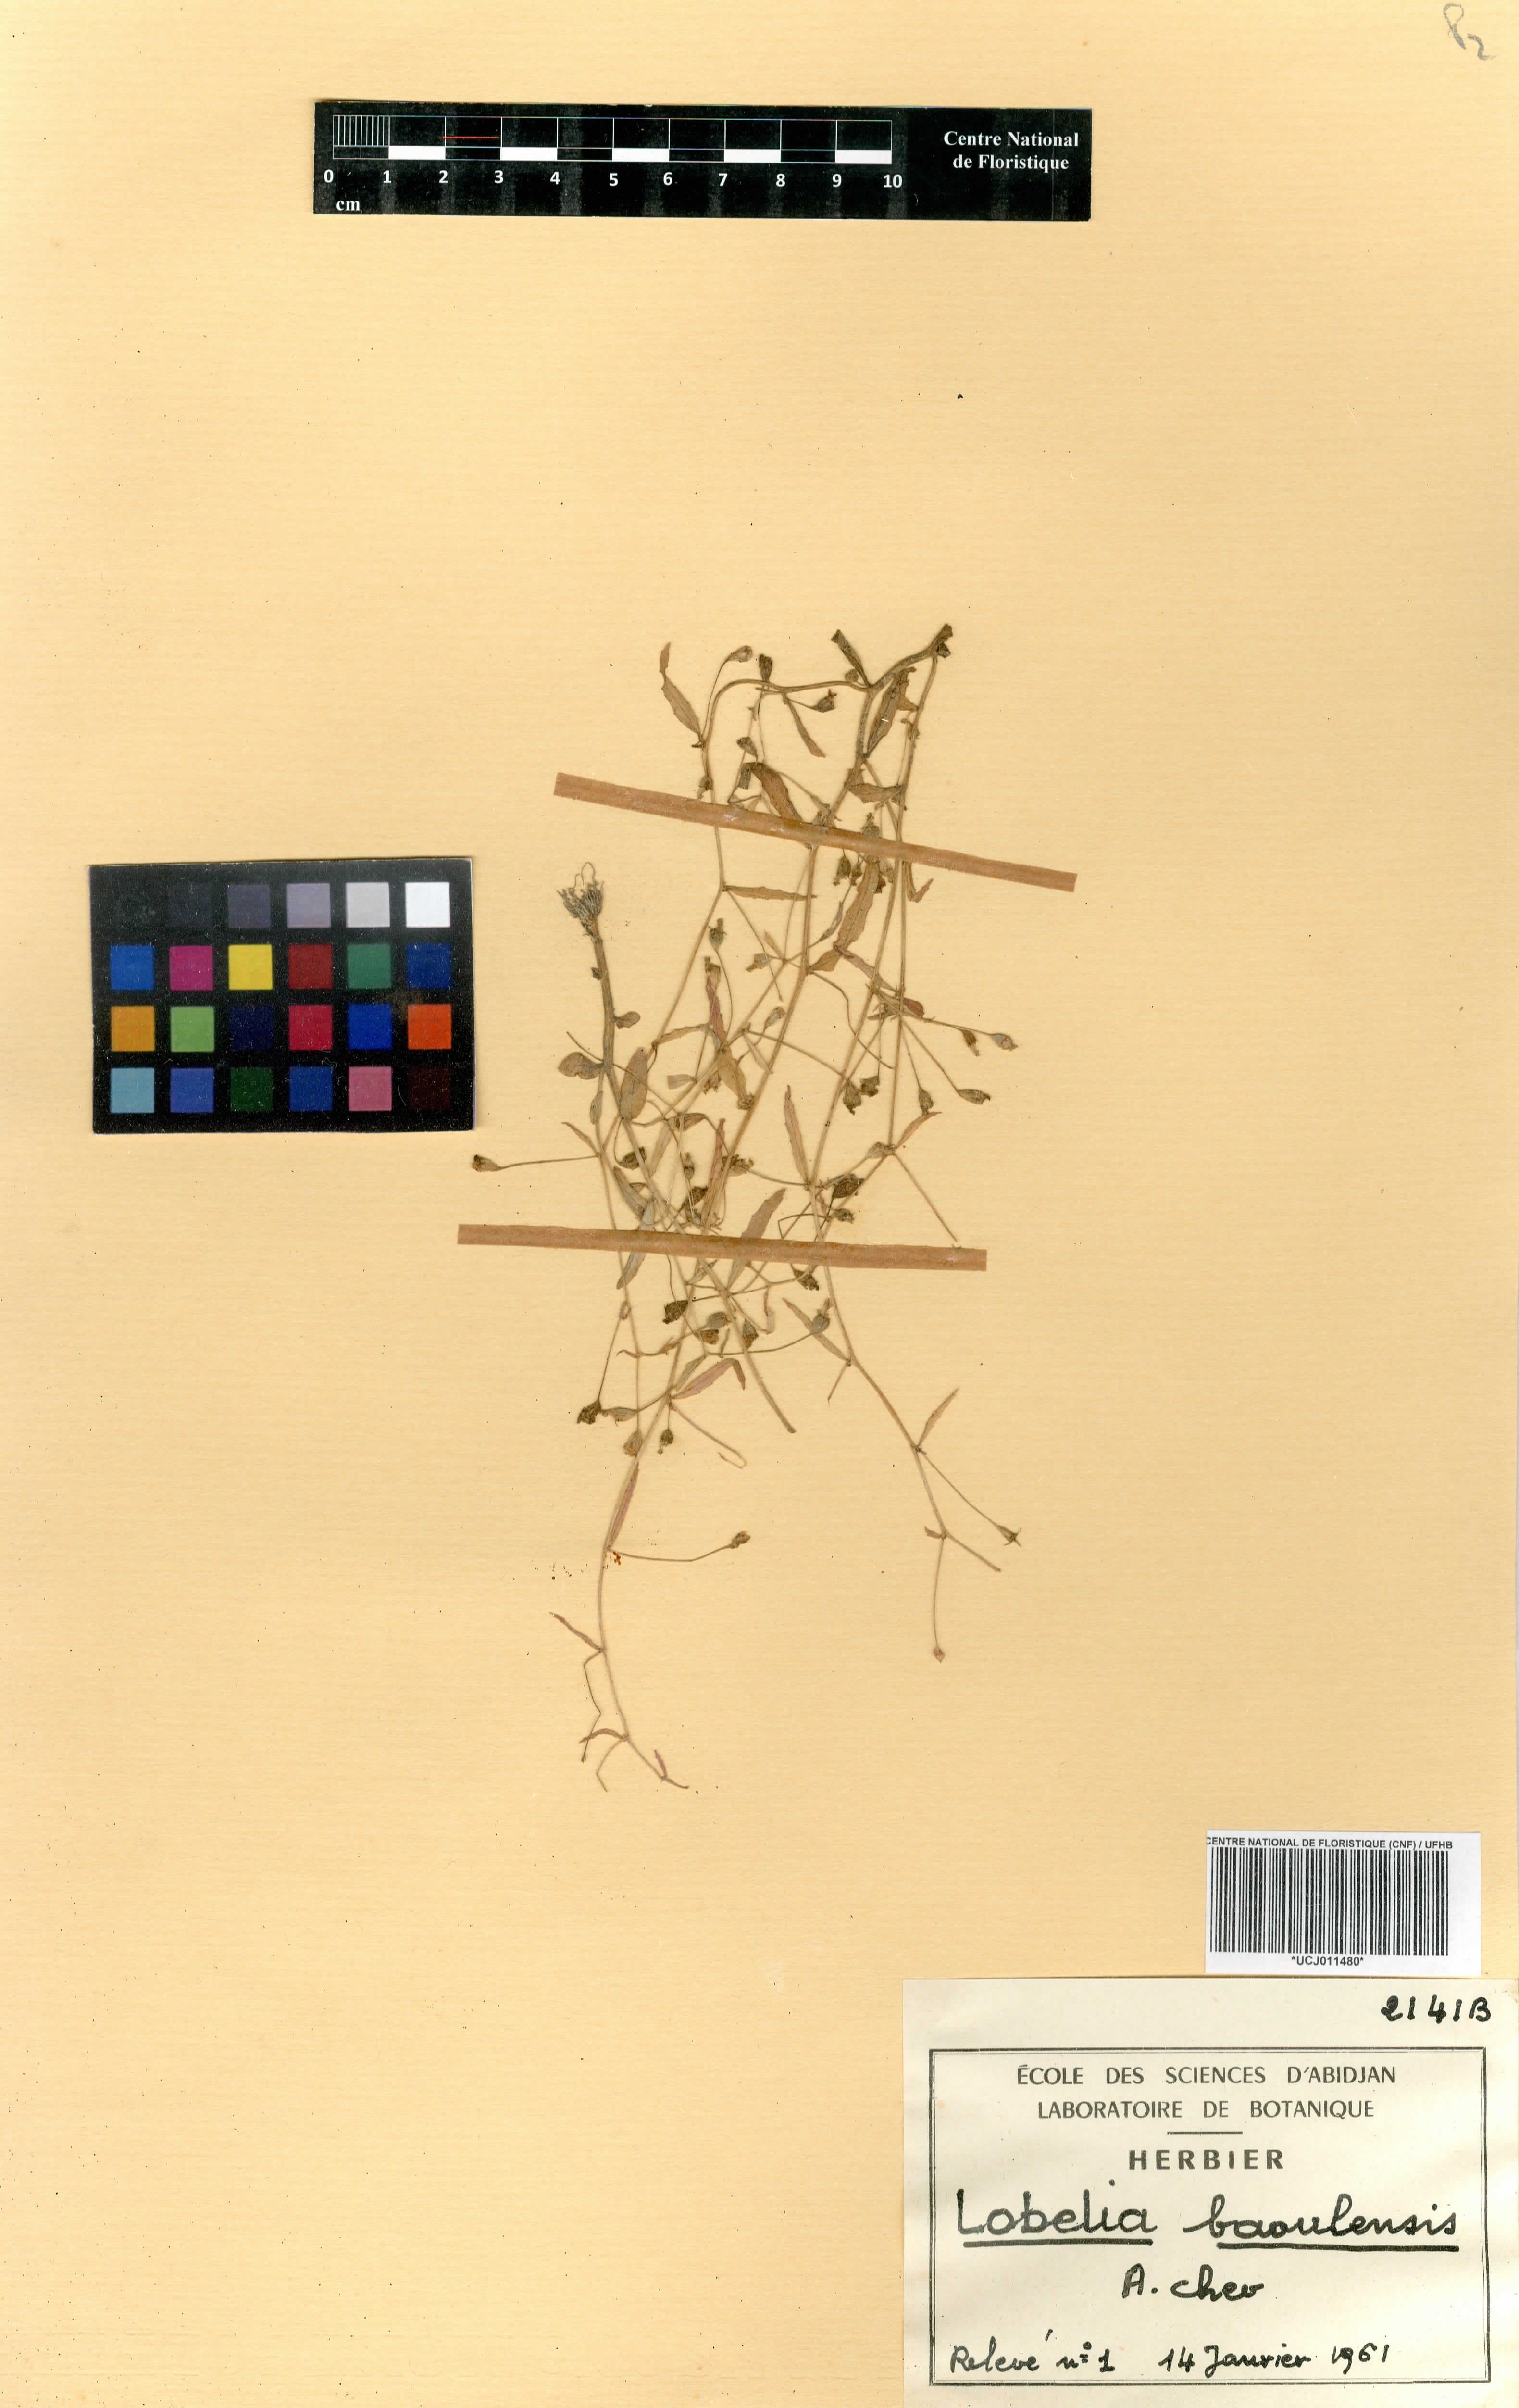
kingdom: Plantae
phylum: Tracheophyta
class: Magnoliopsida
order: Asterales
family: Campanulaceae
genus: Lobelia
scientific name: Lobelia djurensis
